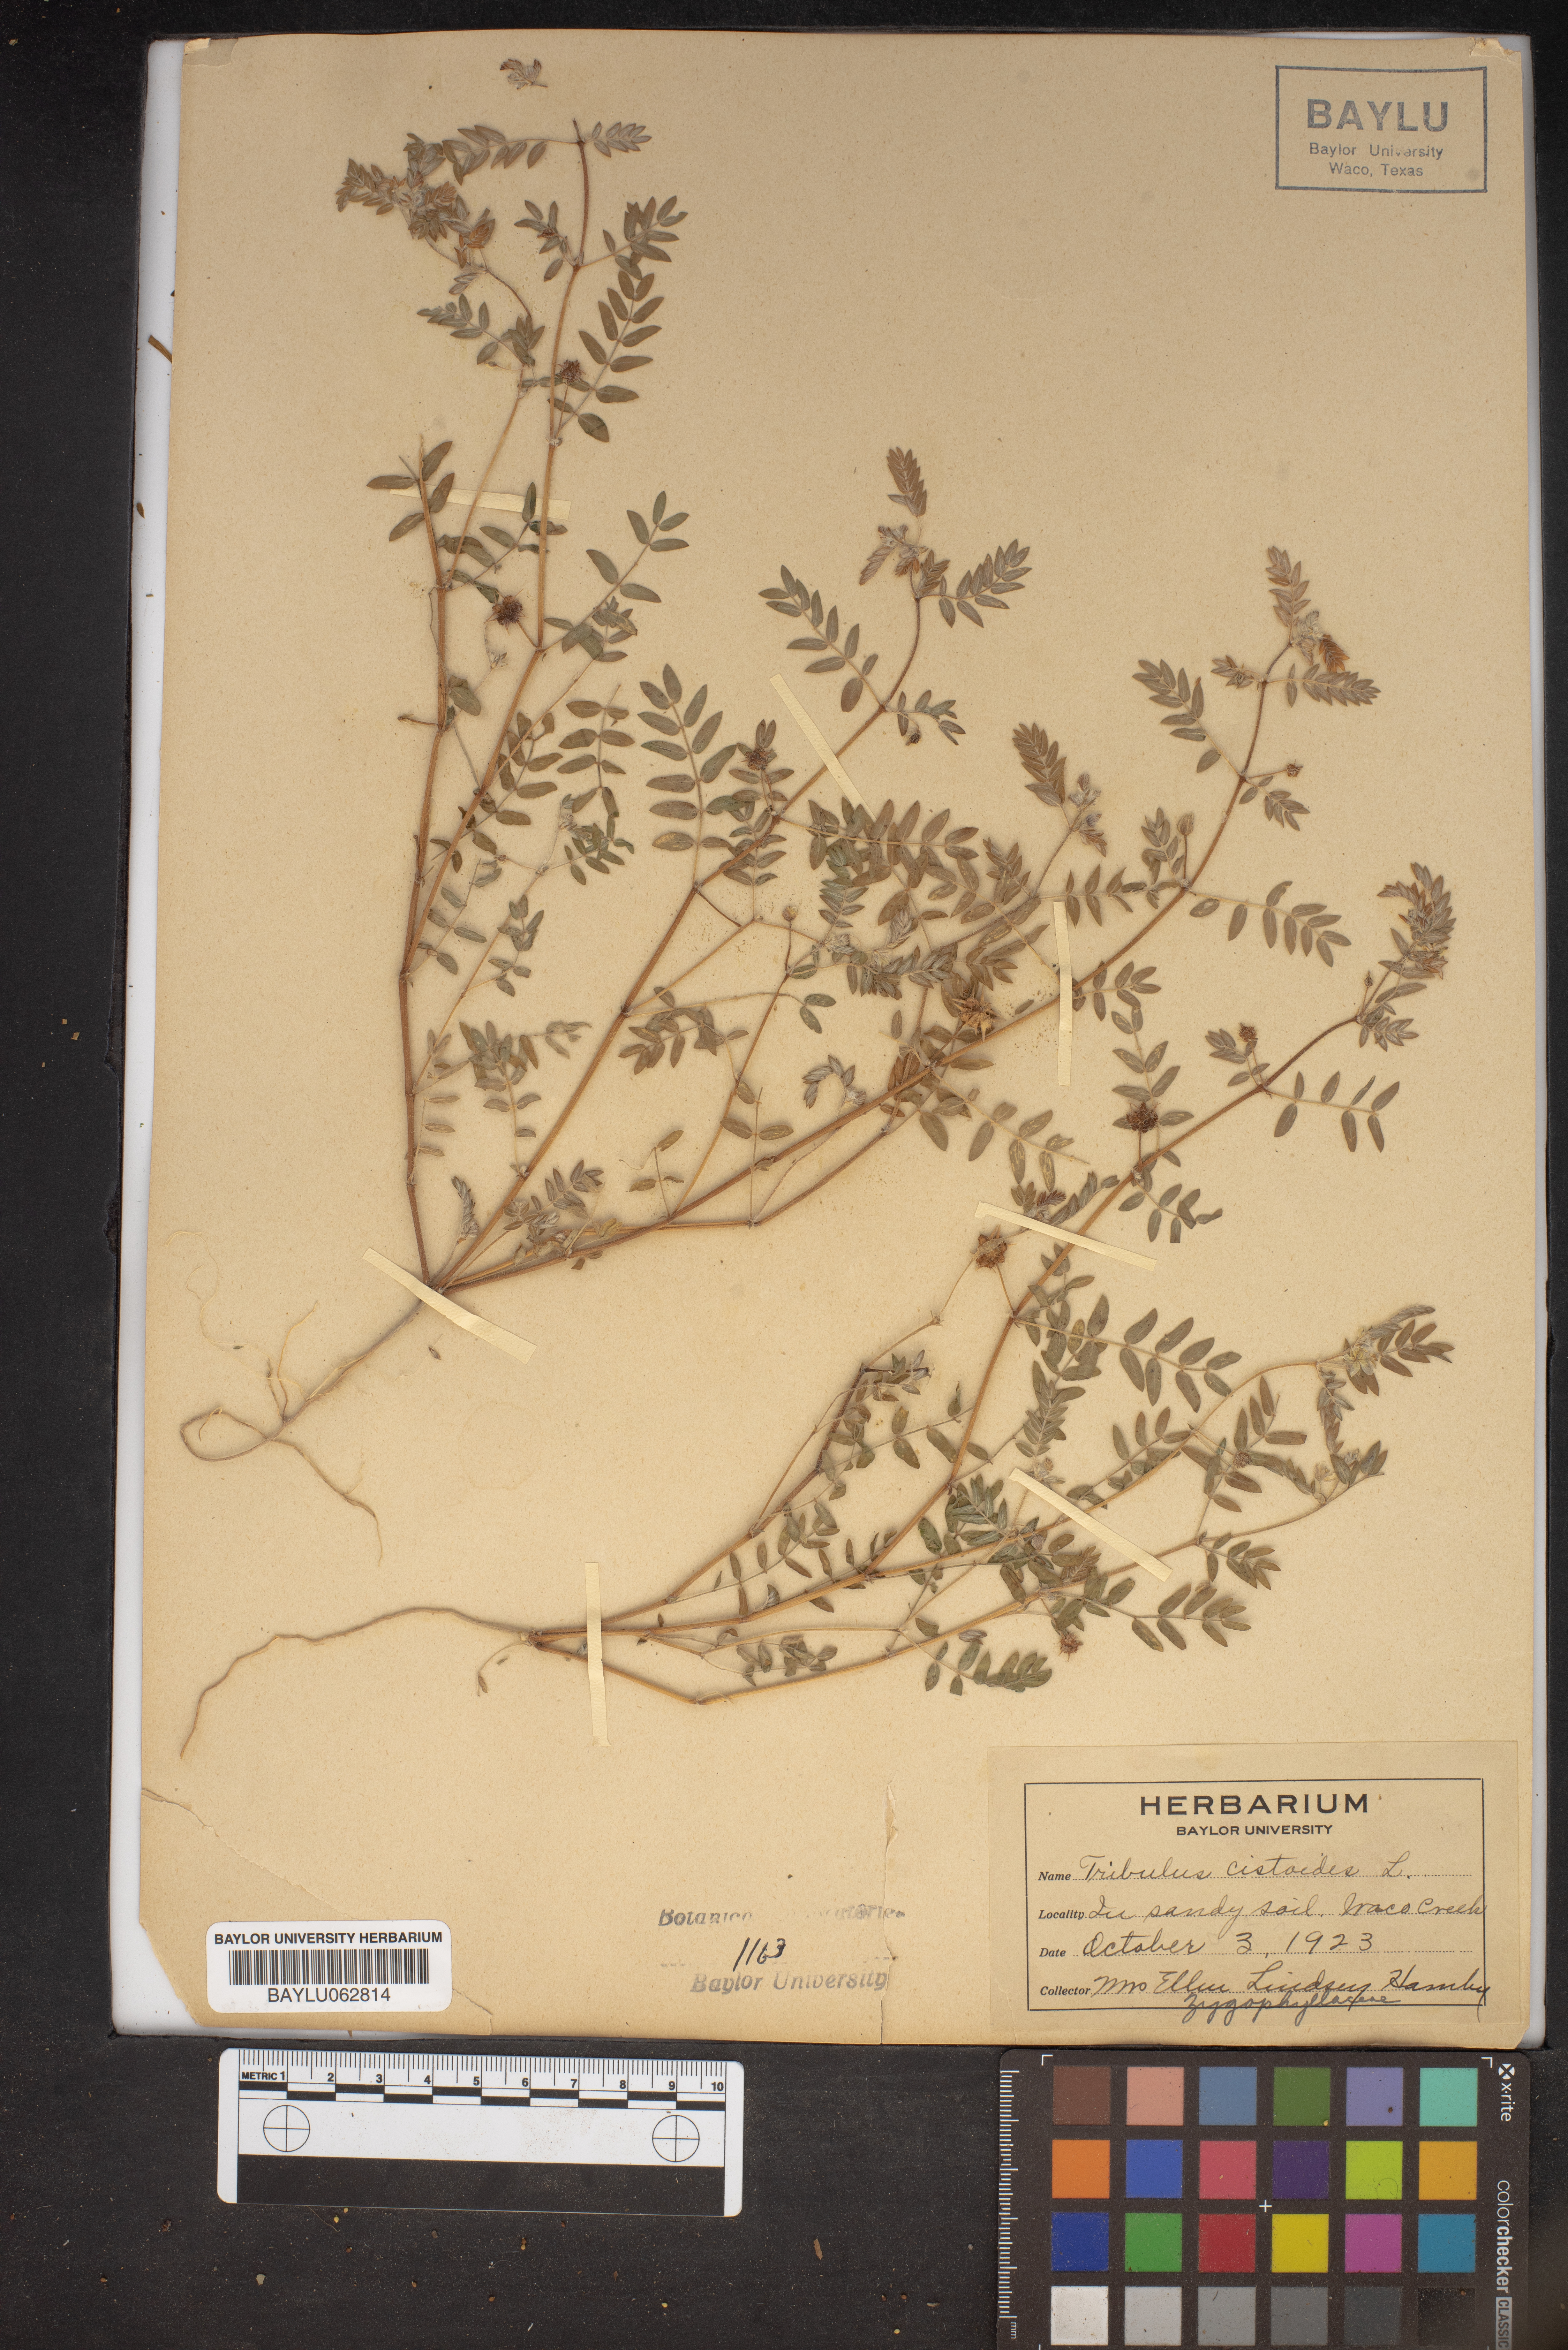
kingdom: Plantae
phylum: Tracheophyta
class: Magnoliopsida
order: Zygophyllales
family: Zygophyllaceae
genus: Tribulus
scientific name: Tribulus cistoides
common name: Jamaican feverplant
